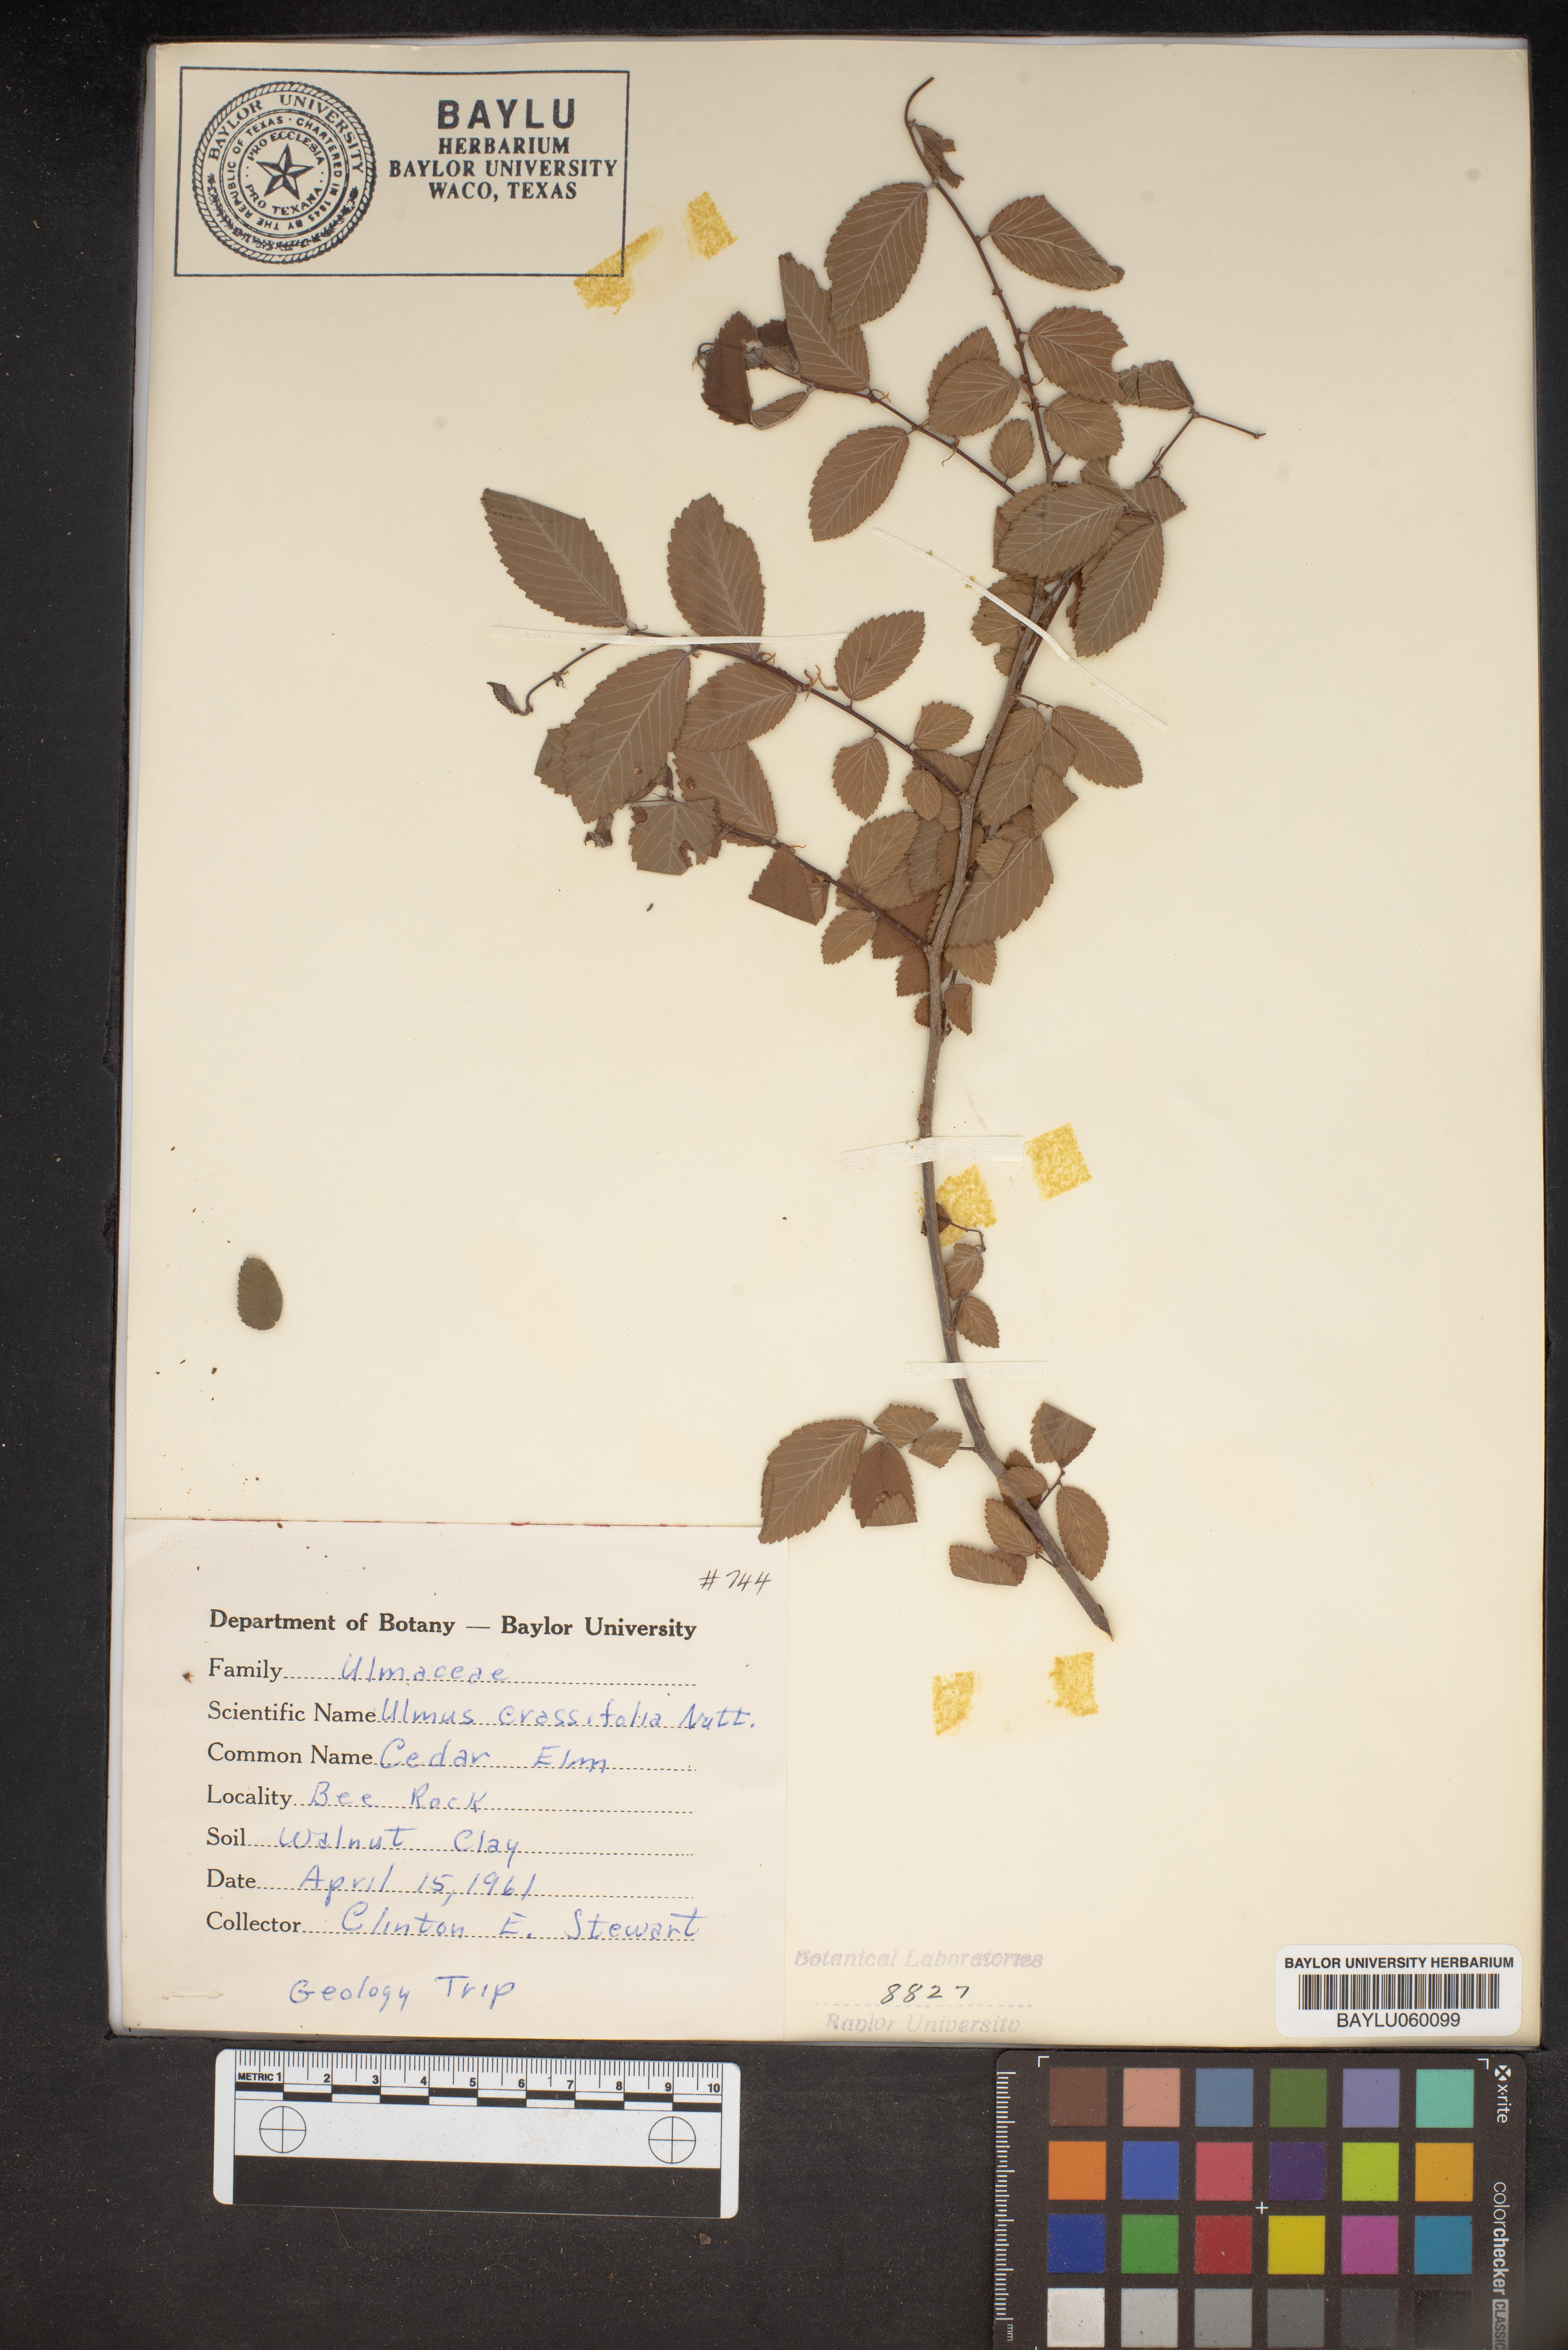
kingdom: Plantae
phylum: Tracheophyta
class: Magnoliopsida
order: Rosales
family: Ulmaceae
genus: Ulmus
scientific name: Ulmus crassifolia
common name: Basket elm
